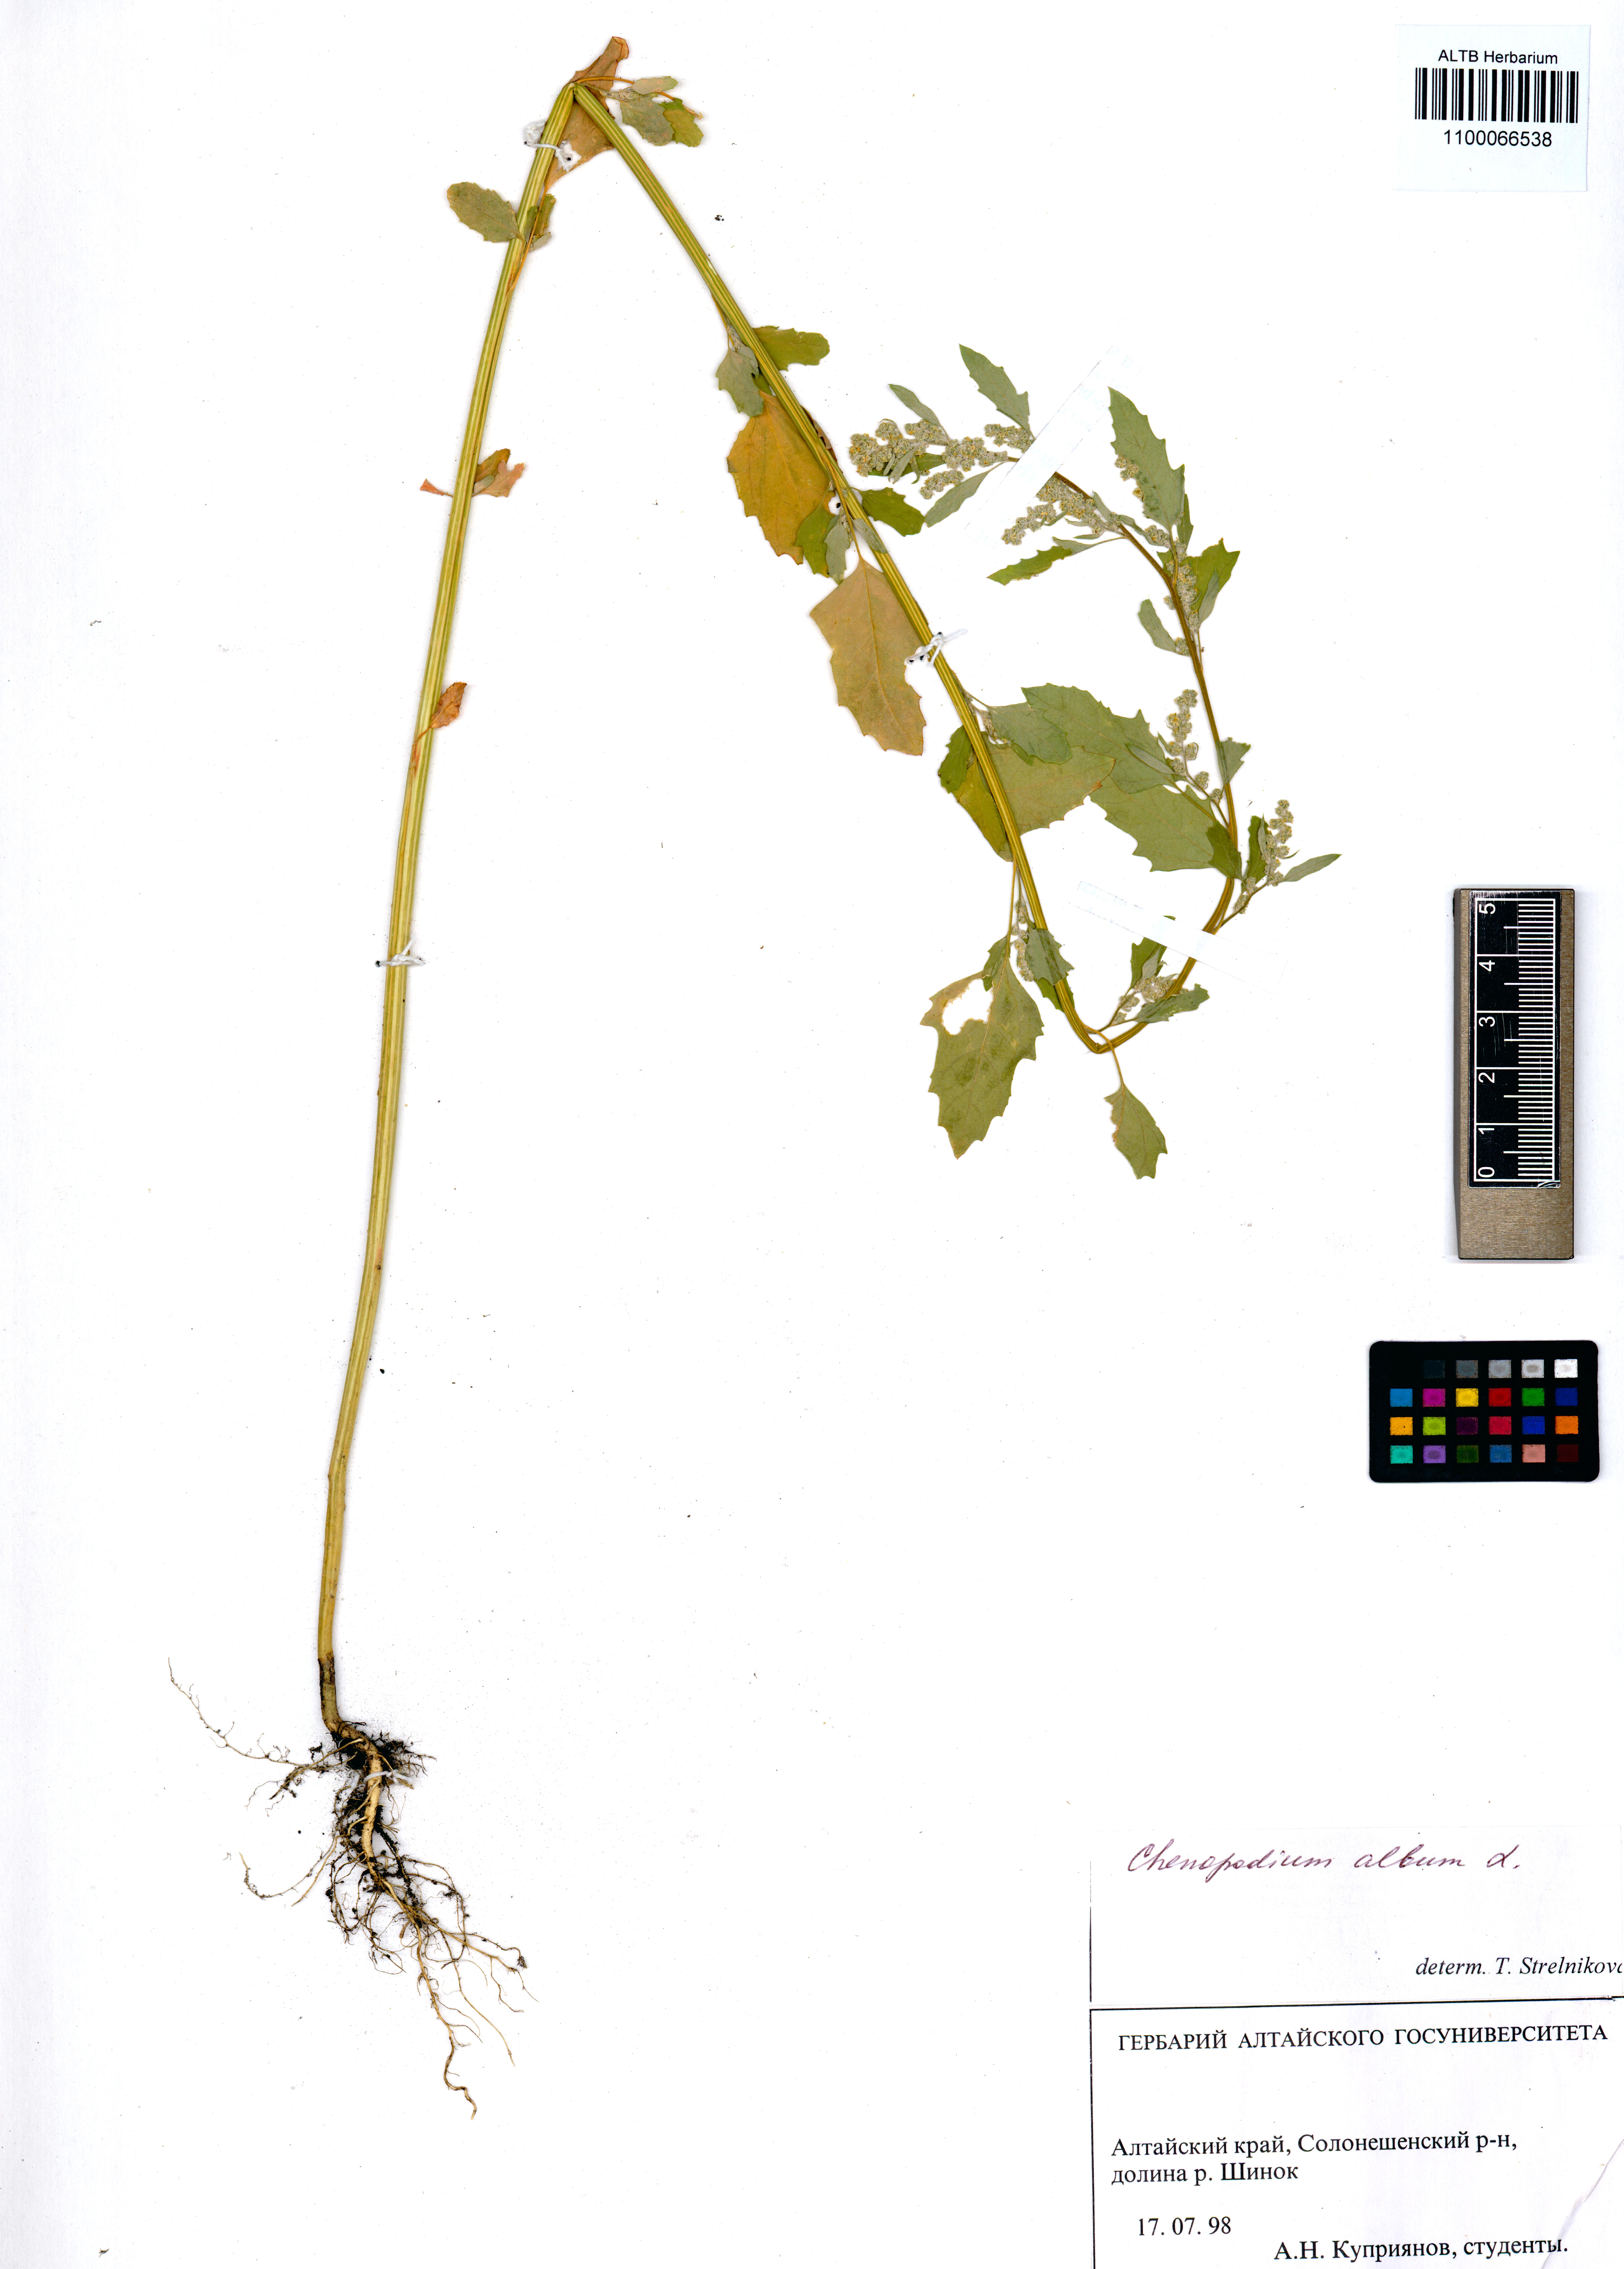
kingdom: Plantae
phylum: Tracheophyta
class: Magnoliopsida
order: Caryophyllales
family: Amaranthaceae
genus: Chenopodium
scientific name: Chenopodium album
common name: Fat-hen
